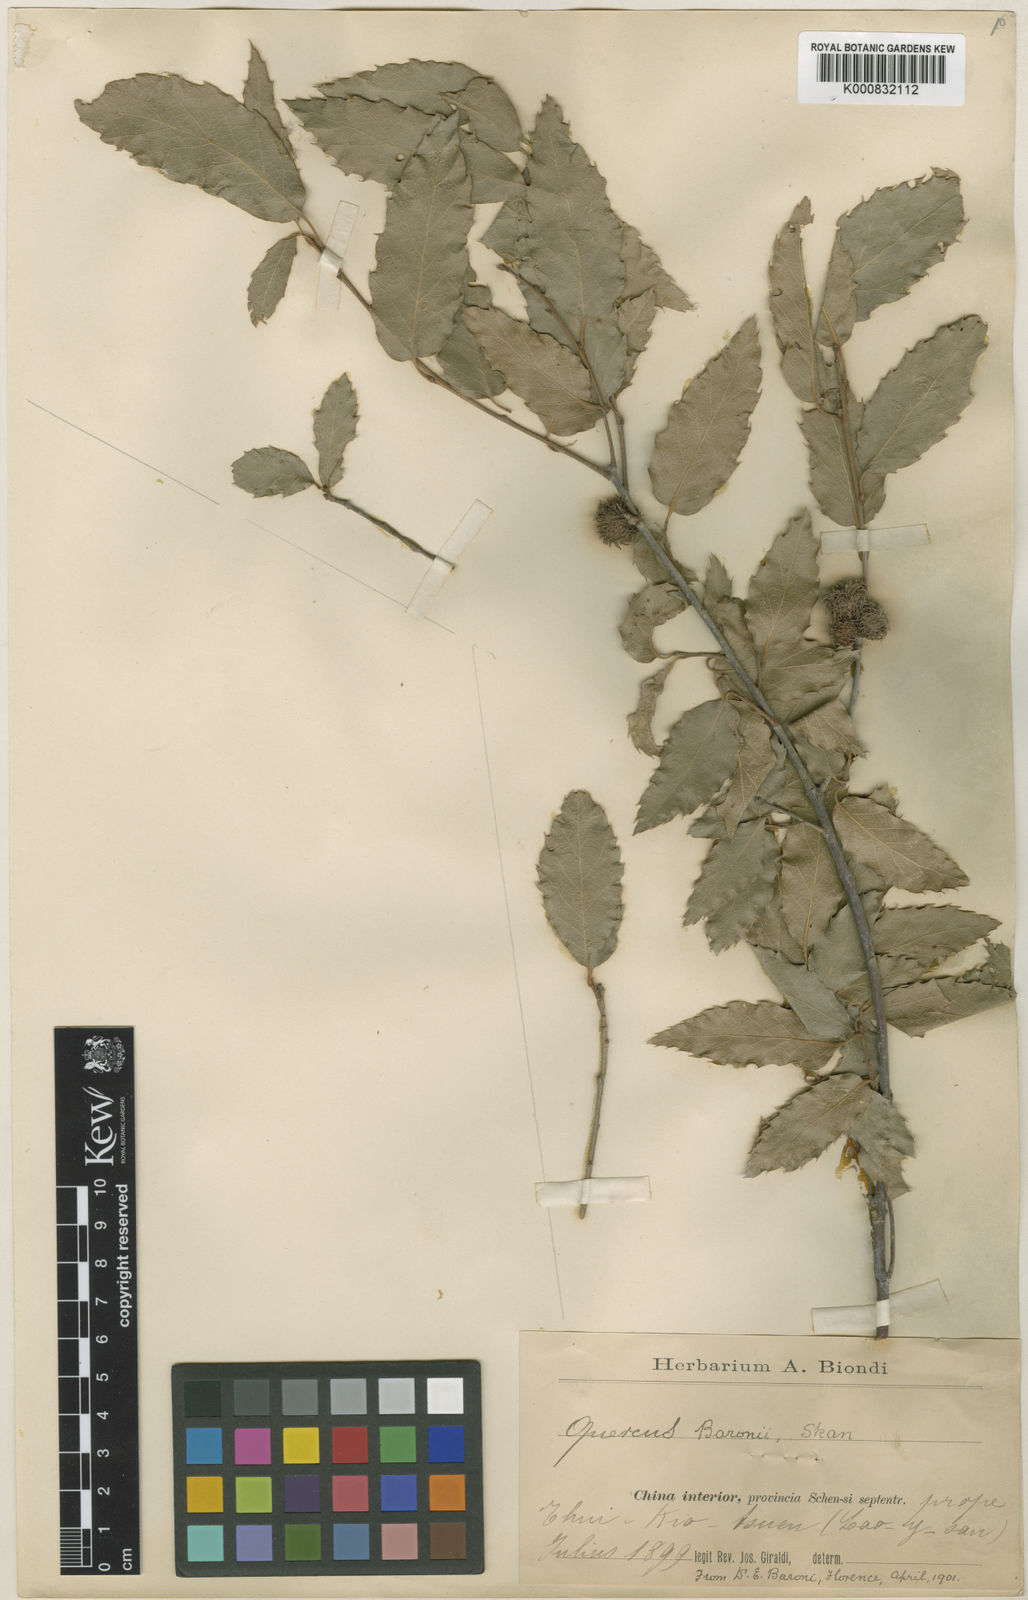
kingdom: Plantae
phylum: Tracheophyta
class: Magnoliopsida
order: Fagales
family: Fagaceae
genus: Quercus
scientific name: Quercus baronii
